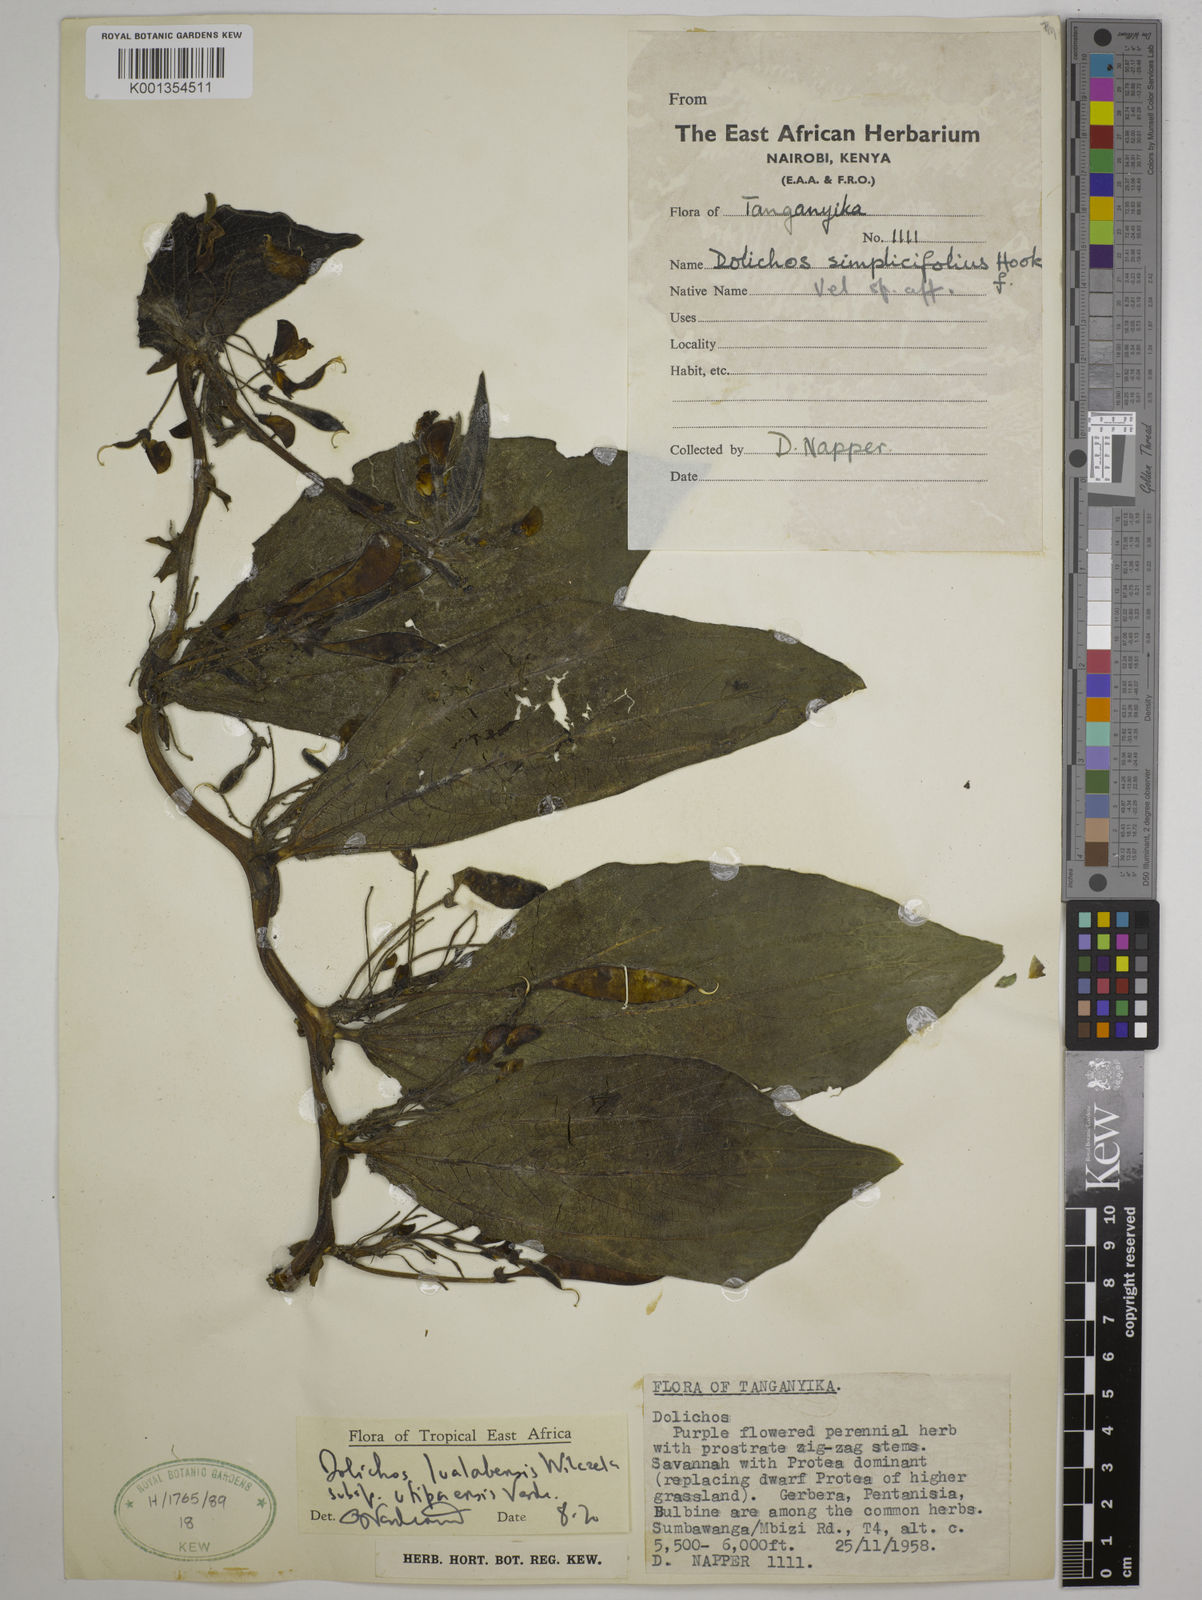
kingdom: Plantae
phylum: Tracheophyta
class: Magnoliopsida
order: Fabales
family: Fabaceae
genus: Dolichos
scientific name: Dolichos
